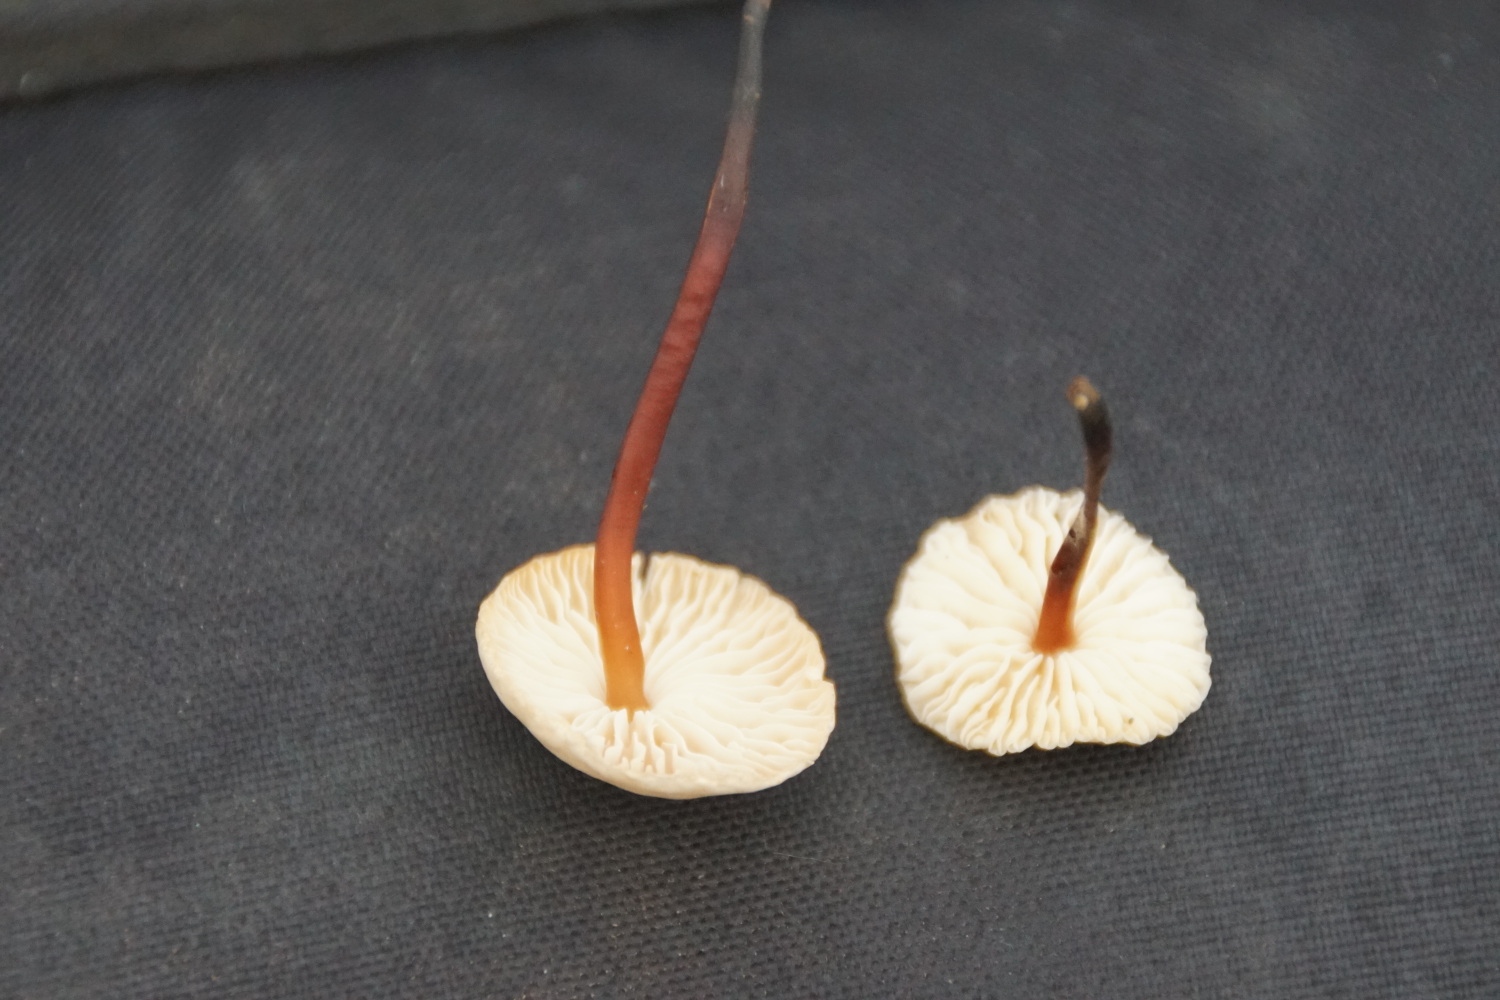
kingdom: Fungi
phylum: Basidiomycota
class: Agaricomycetes
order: Agaricales
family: Omphalotaceae
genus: Mycetinis
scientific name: Mycetinis scorodonius
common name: lille løghat
